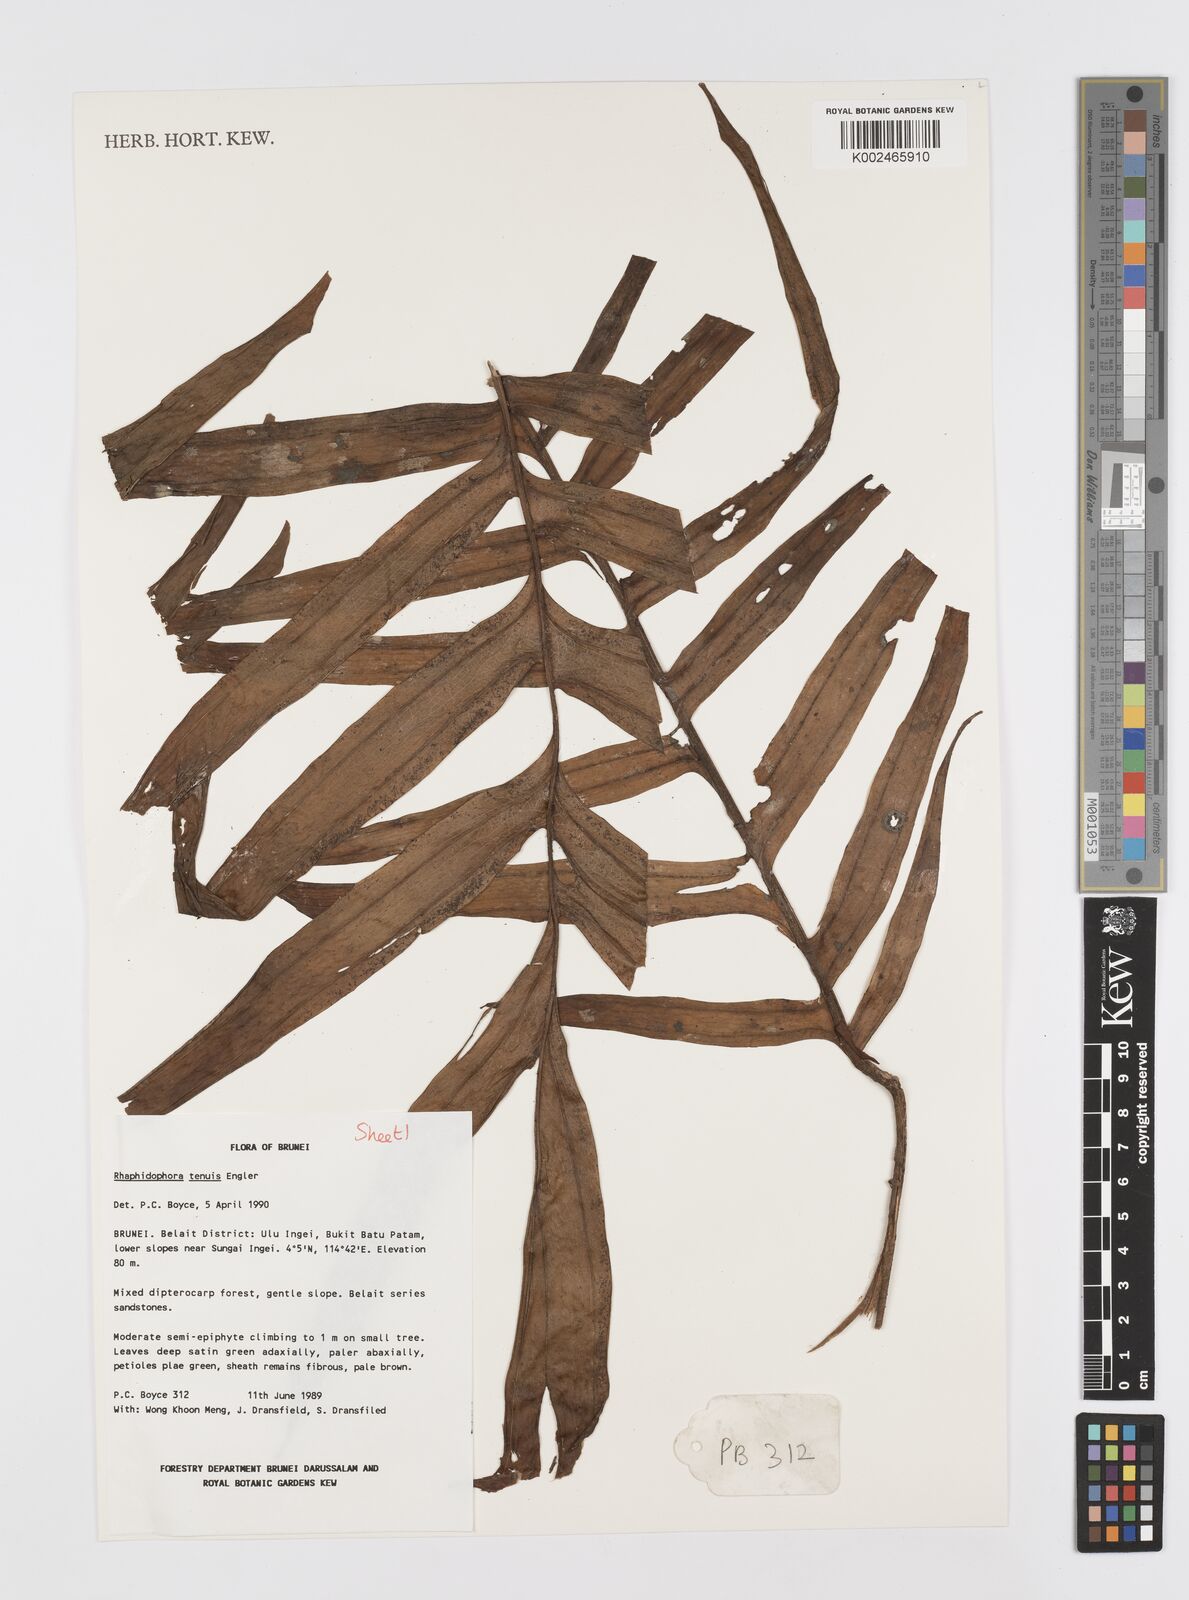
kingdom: Plantae
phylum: Tracheophyta
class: Liliopsida
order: Alismatales
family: Araceae
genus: Rhaphidophora
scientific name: Rhaphidophora korthalsii
